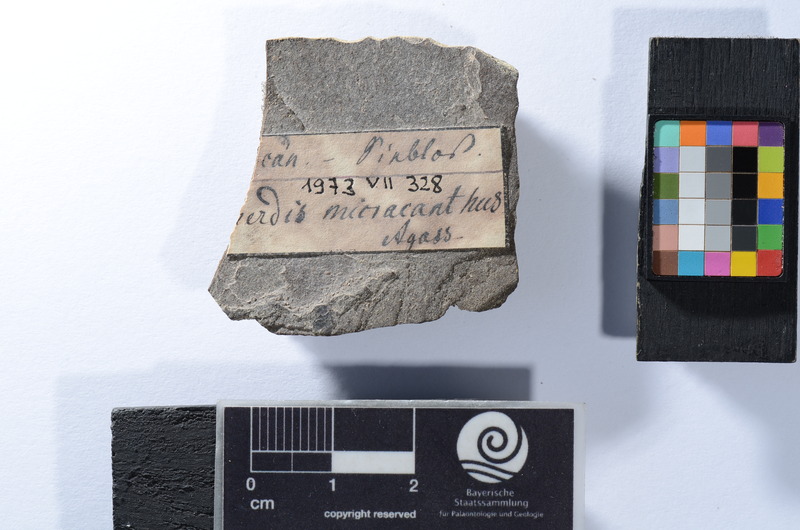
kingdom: Animalia
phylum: Chordata
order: Perciformes
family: Percidae
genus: Perca
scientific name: Perca
